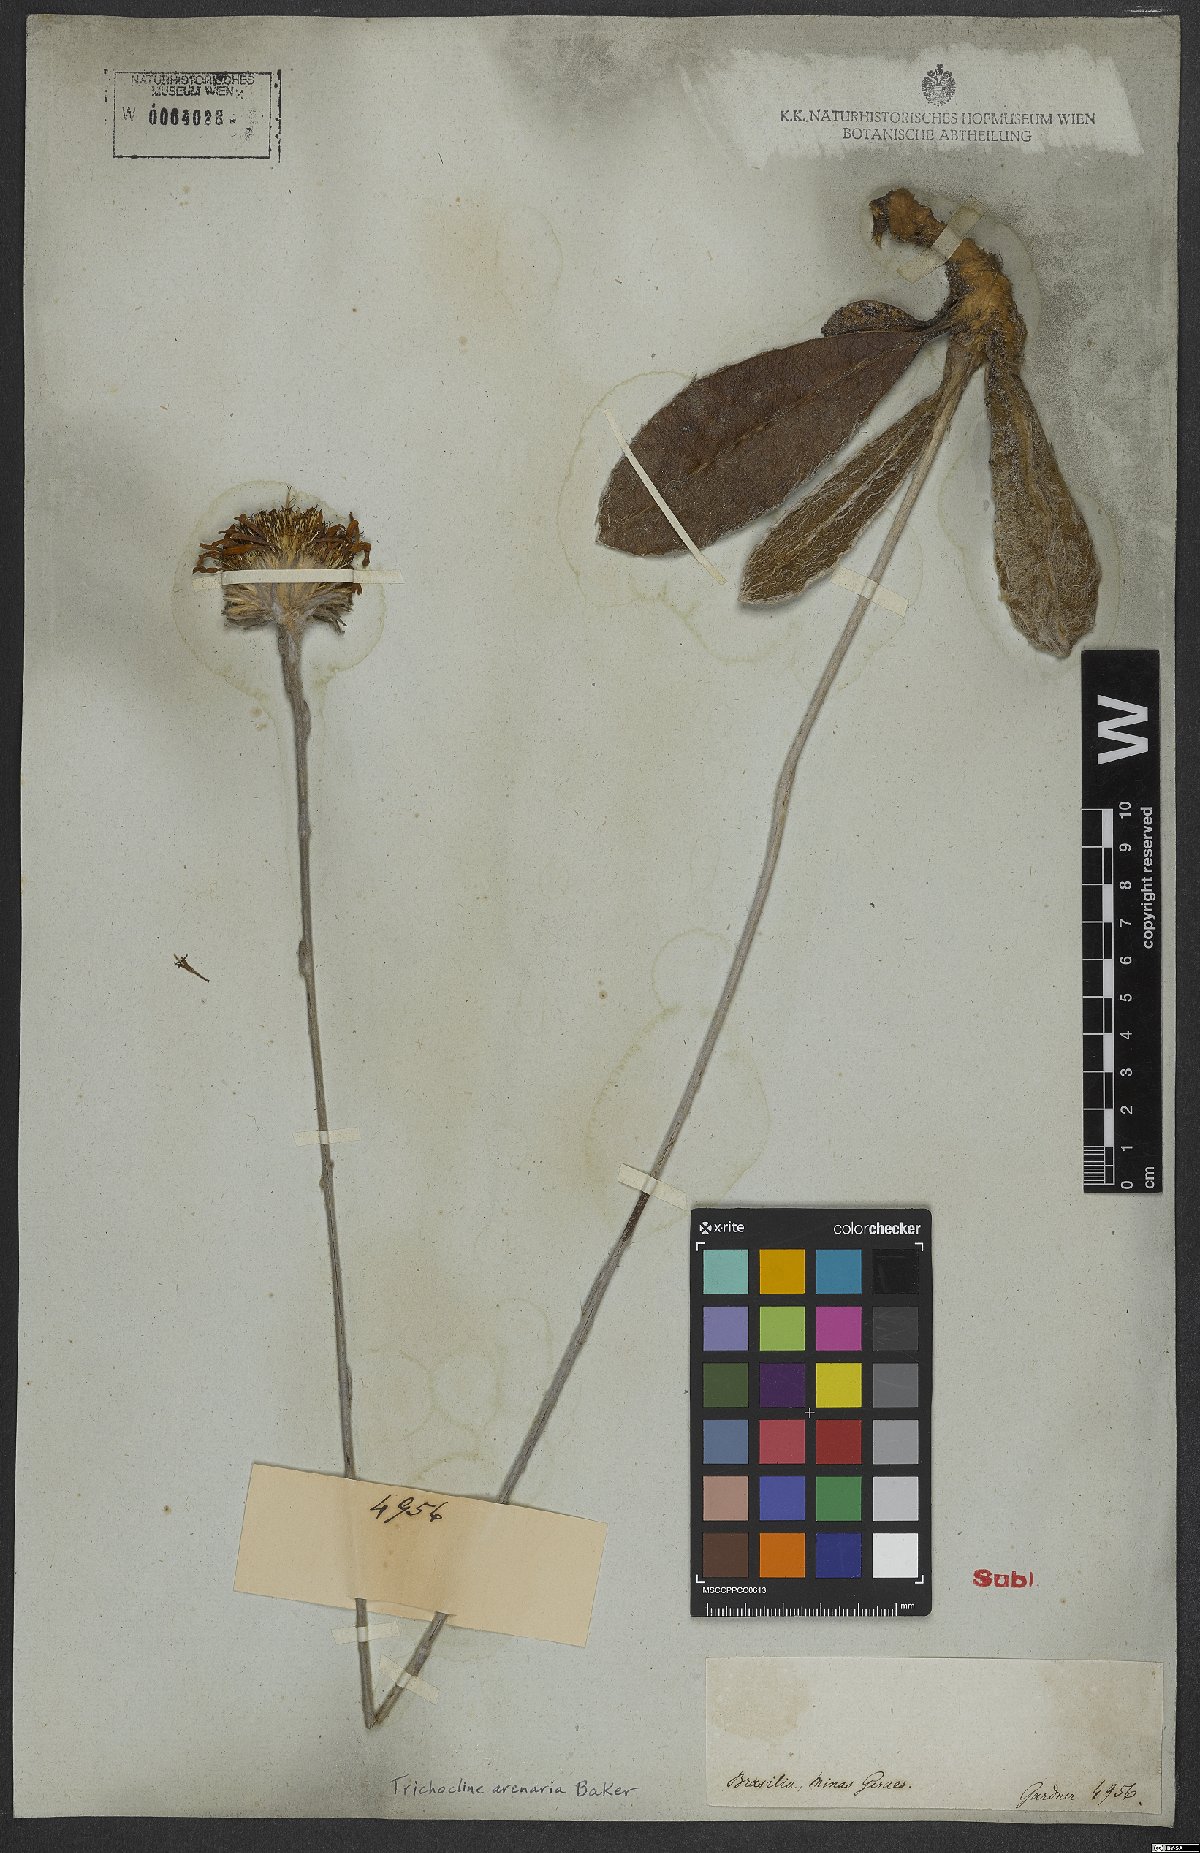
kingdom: Plantae
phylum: Tracheophyta
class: Magnoliopsida
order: Asterales
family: Asteraceae
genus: Richterago
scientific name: Richterago arenaria
